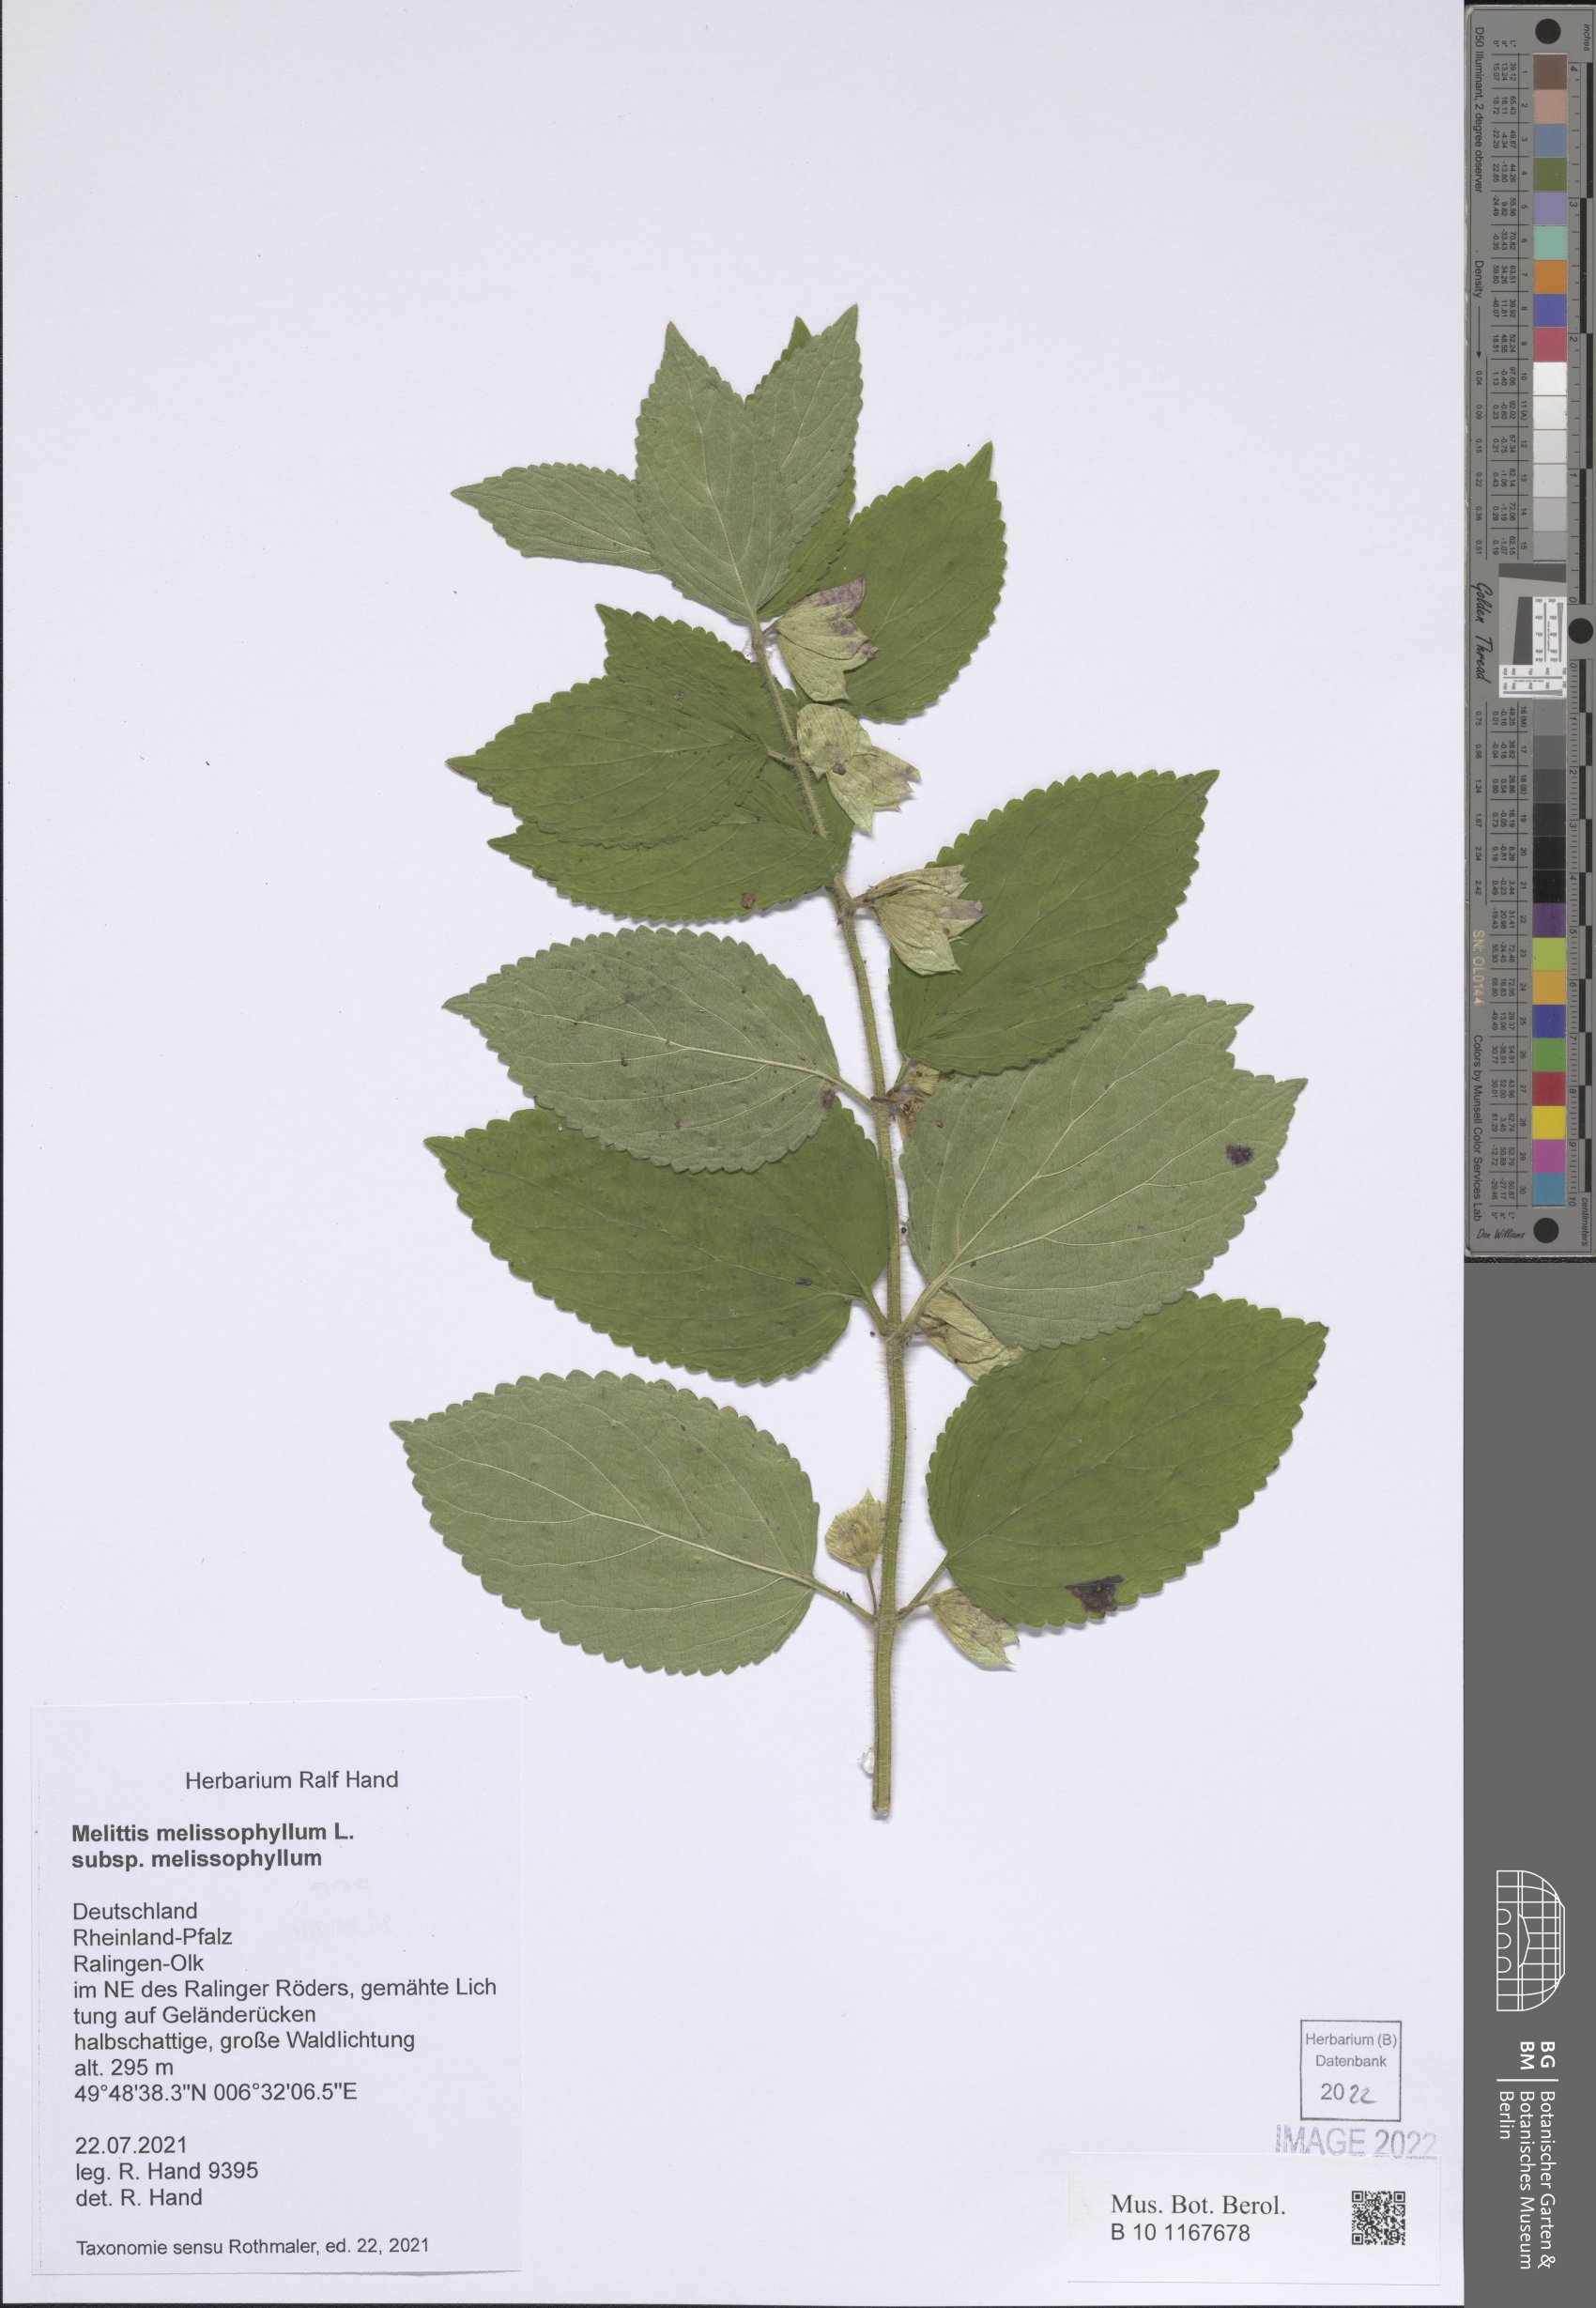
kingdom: Plantae
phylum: Tracheophyta
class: Magnoliopsida
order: Lamiales
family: Lamiaceae
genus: Melittis
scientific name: Melittis melissophyllum
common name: Bastard balm
